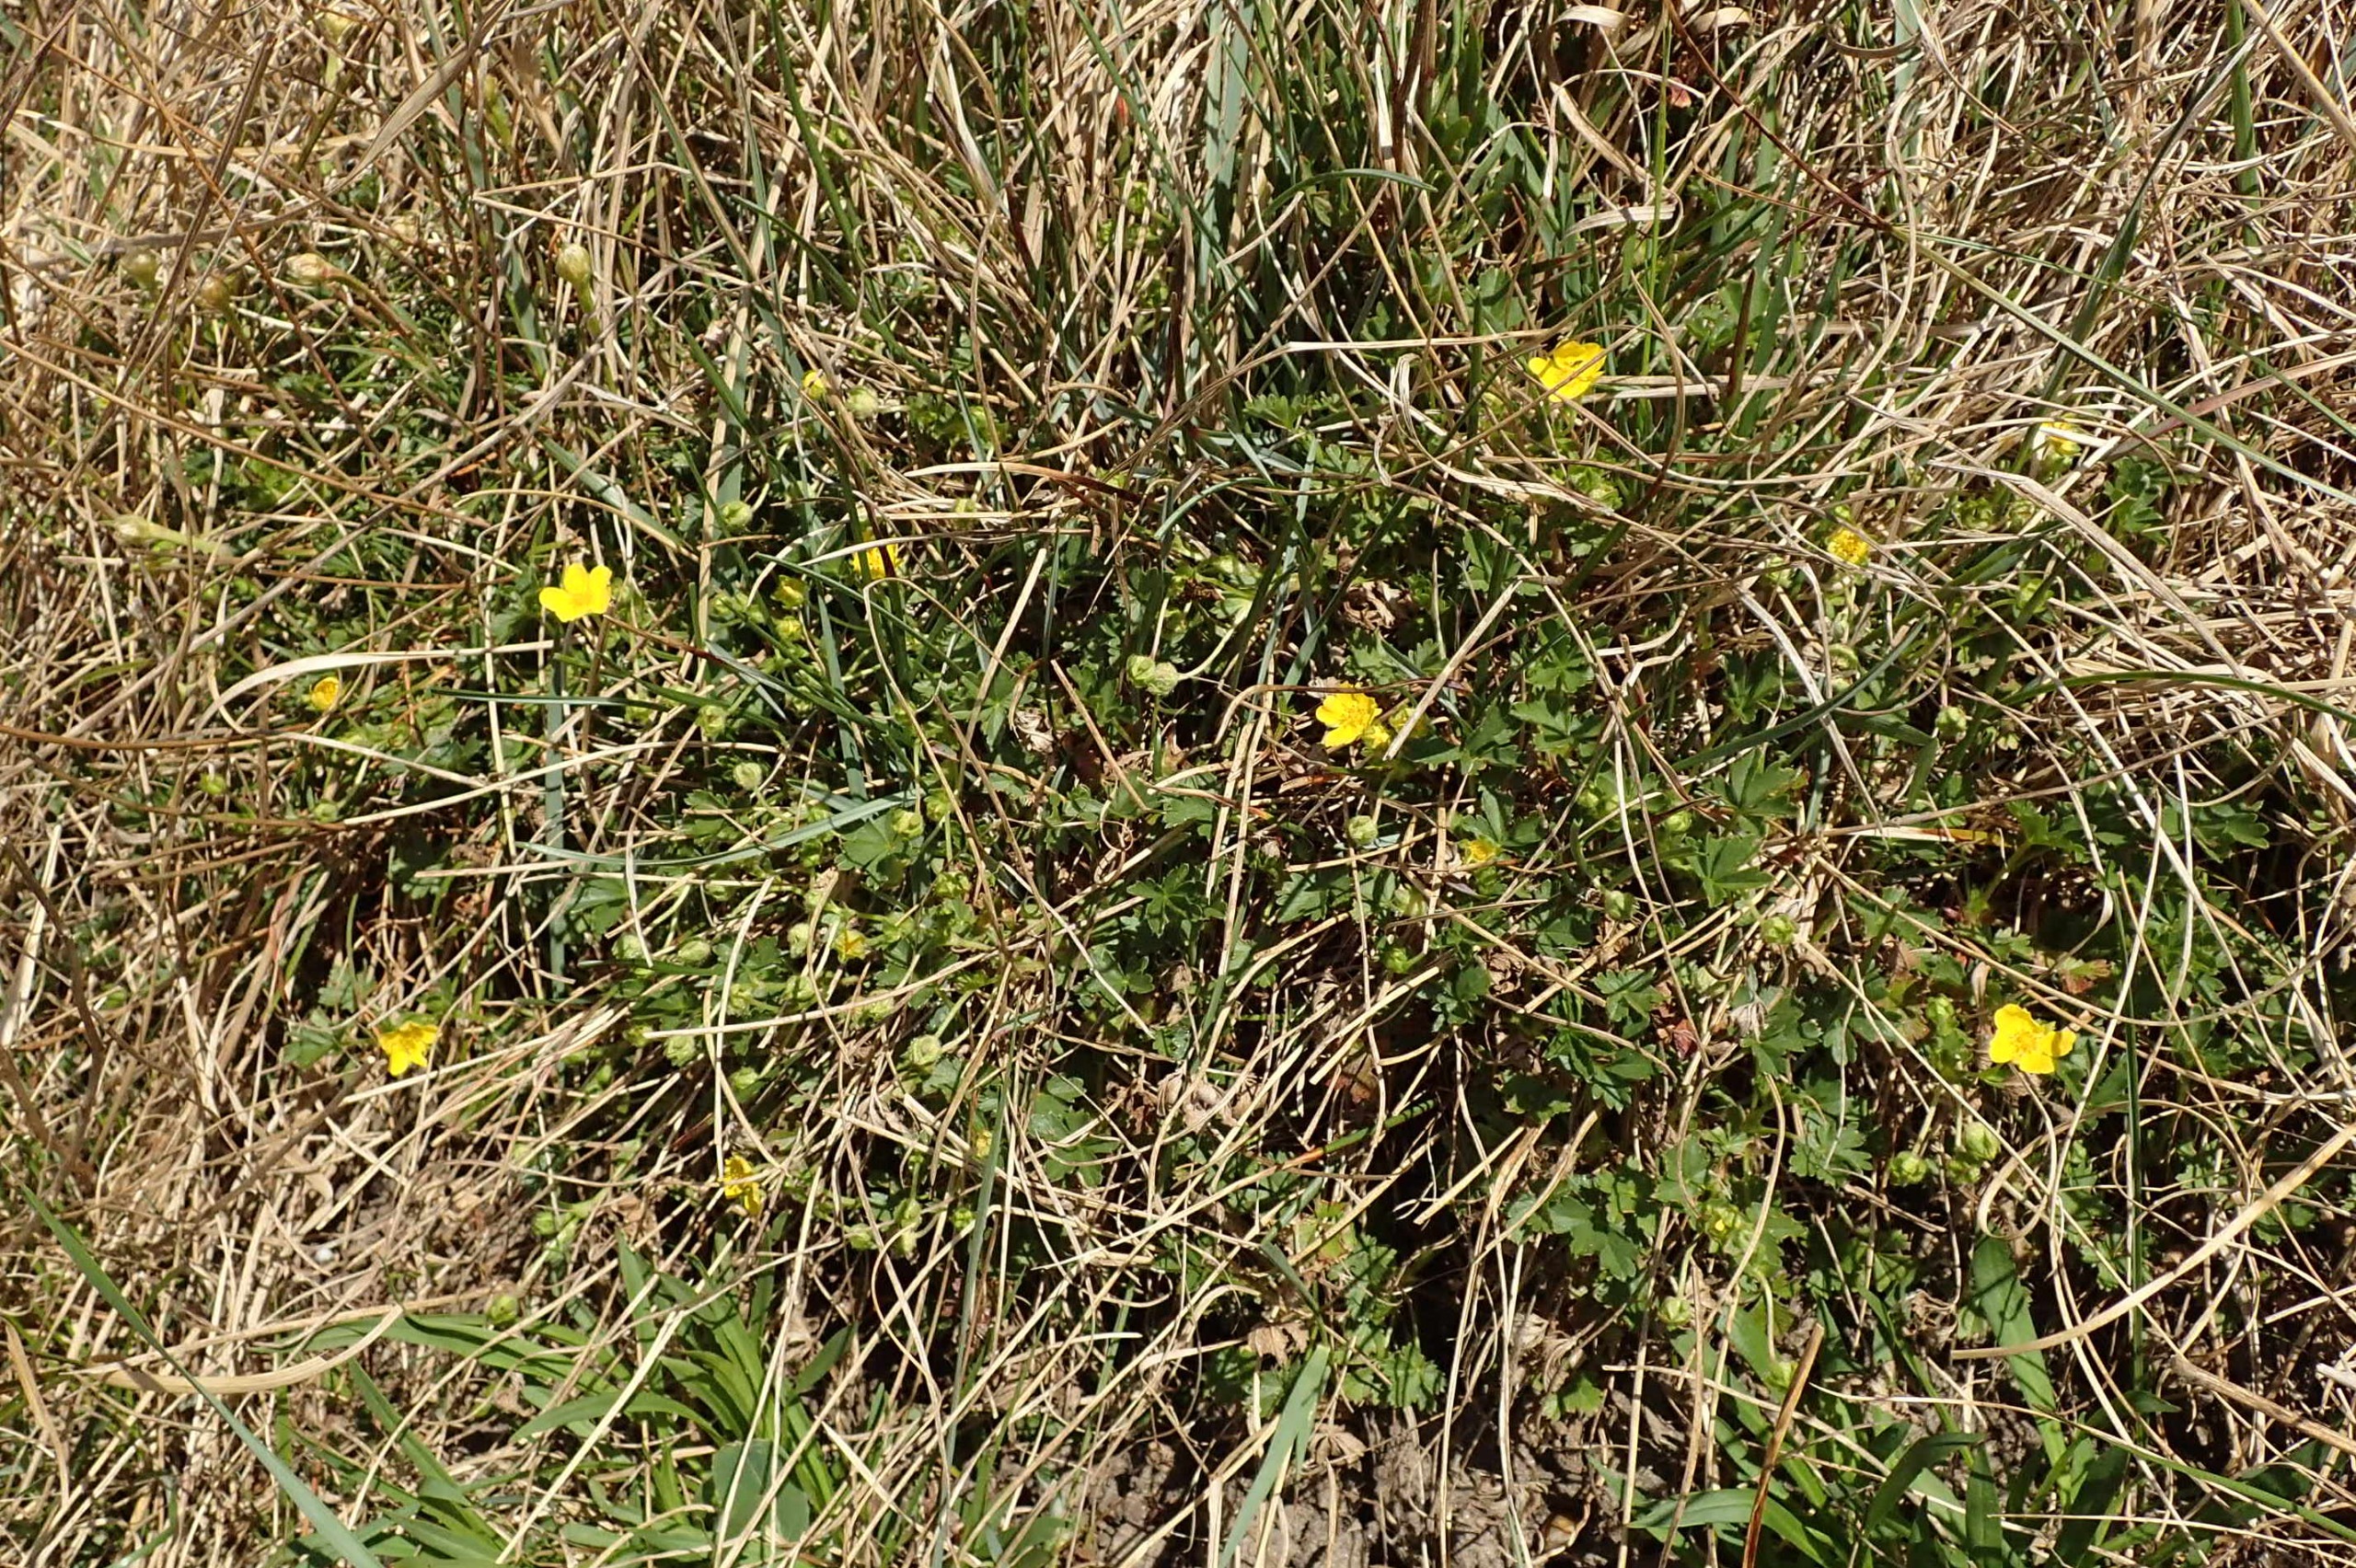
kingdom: Plantae
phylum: Tracheophyta
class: Magnoliopsida
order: Rosales
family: Rosaceae
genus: Potentilla
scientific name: Potentilla verna
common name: Vår-potentil
